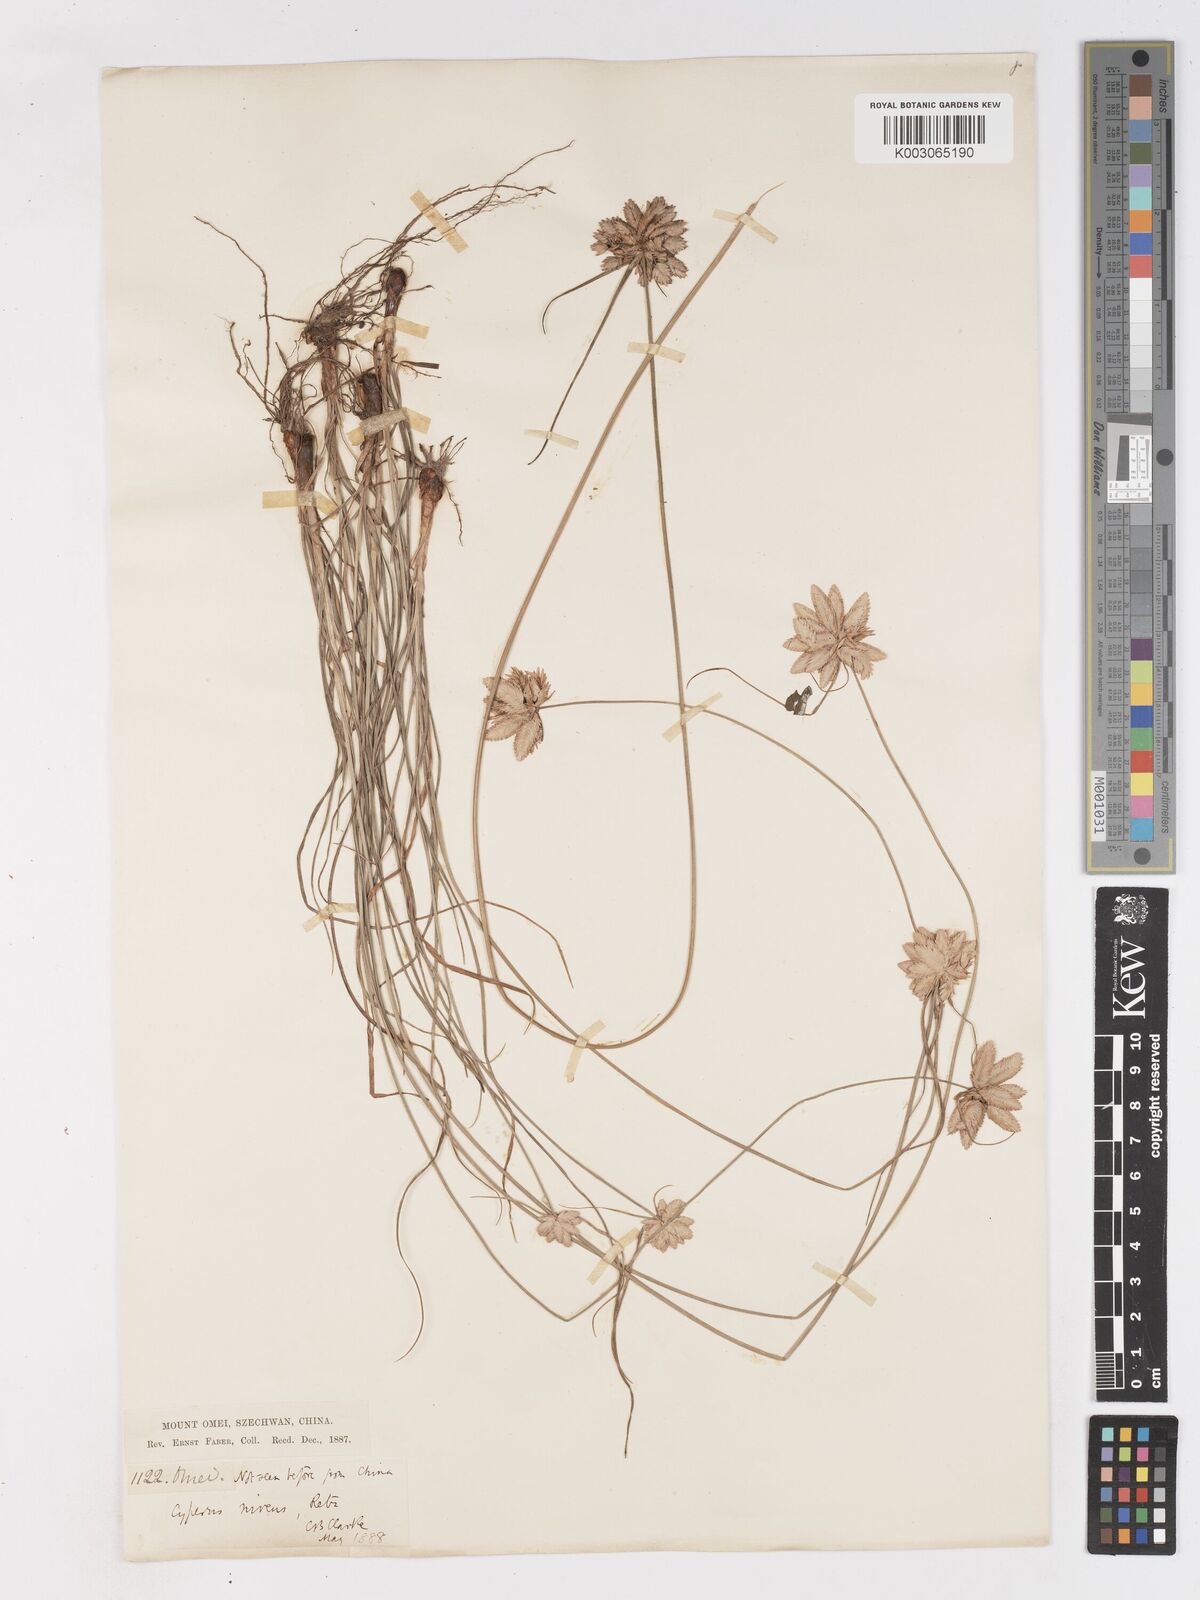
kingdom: Plantae
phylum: Tracheophyta
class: Liliopsida
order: Poales
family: Cyperaceae
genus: Cyperus
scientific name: Cyperus niveus
